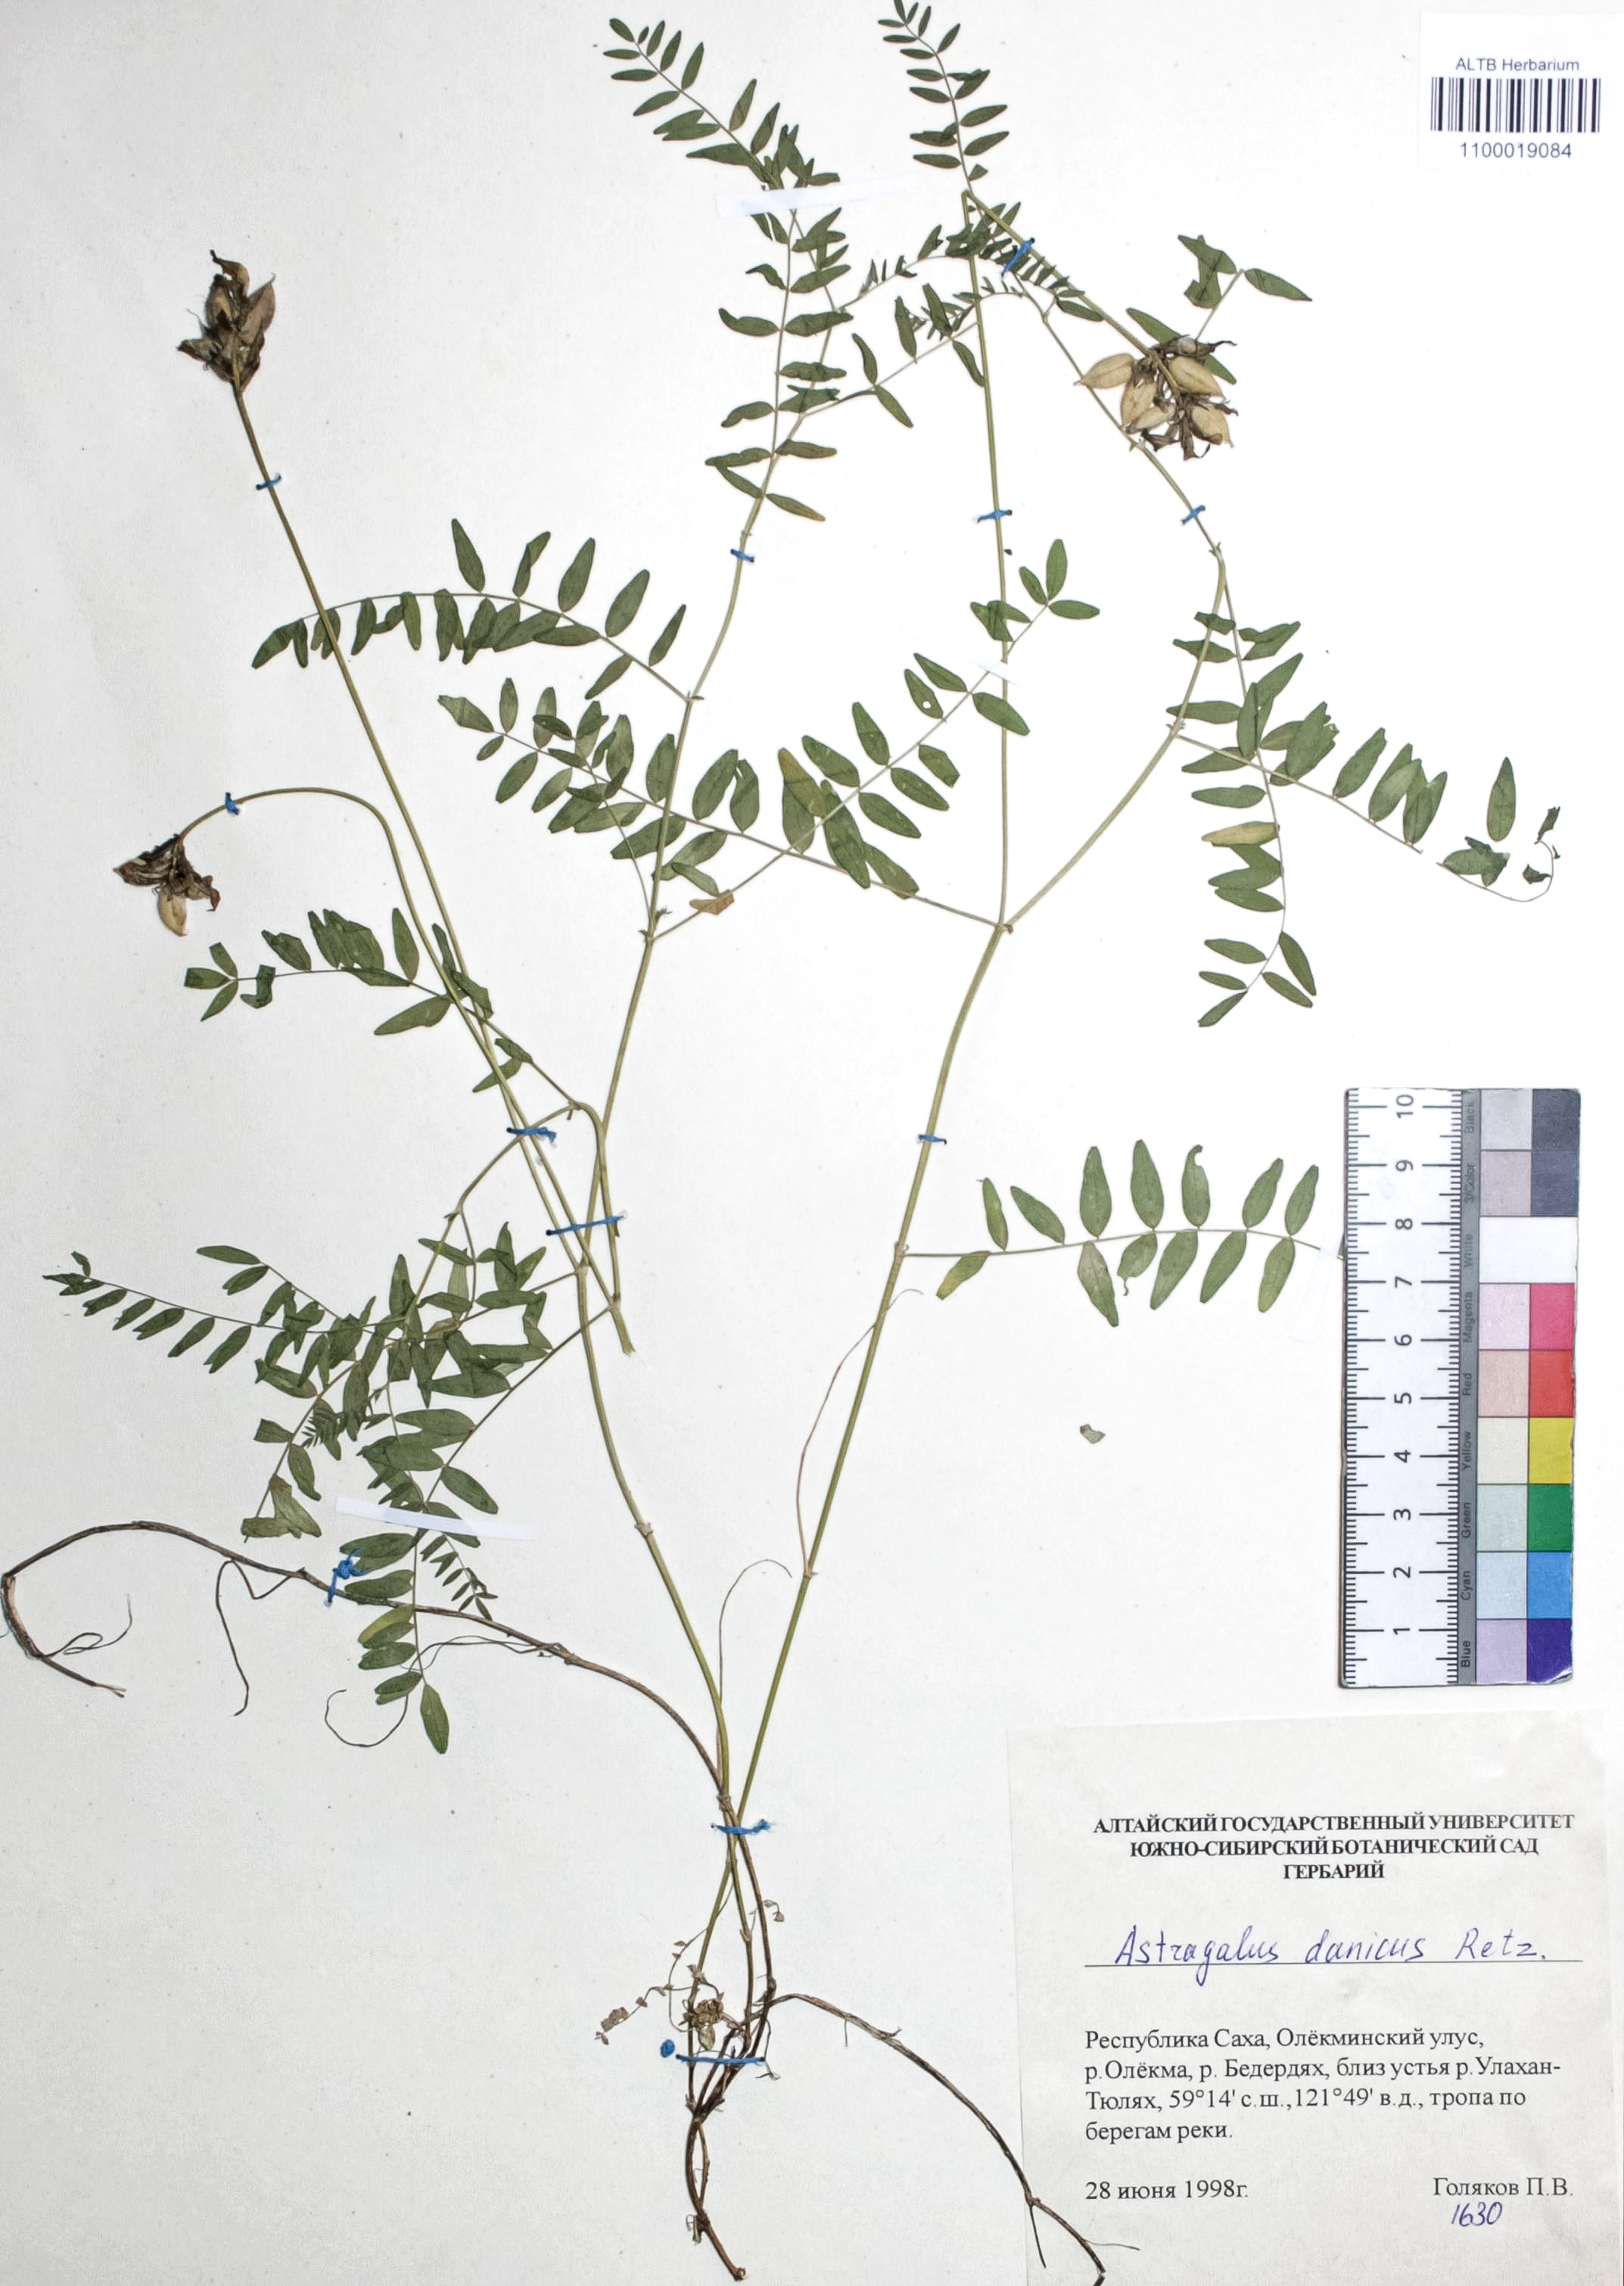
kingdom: Plantae
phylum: Tracheophyta
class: Magnoliopsida
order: Fabales
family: Fabaceae
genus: Astragalus
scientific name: Astragalus danicus
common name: Purple milk-vetch
